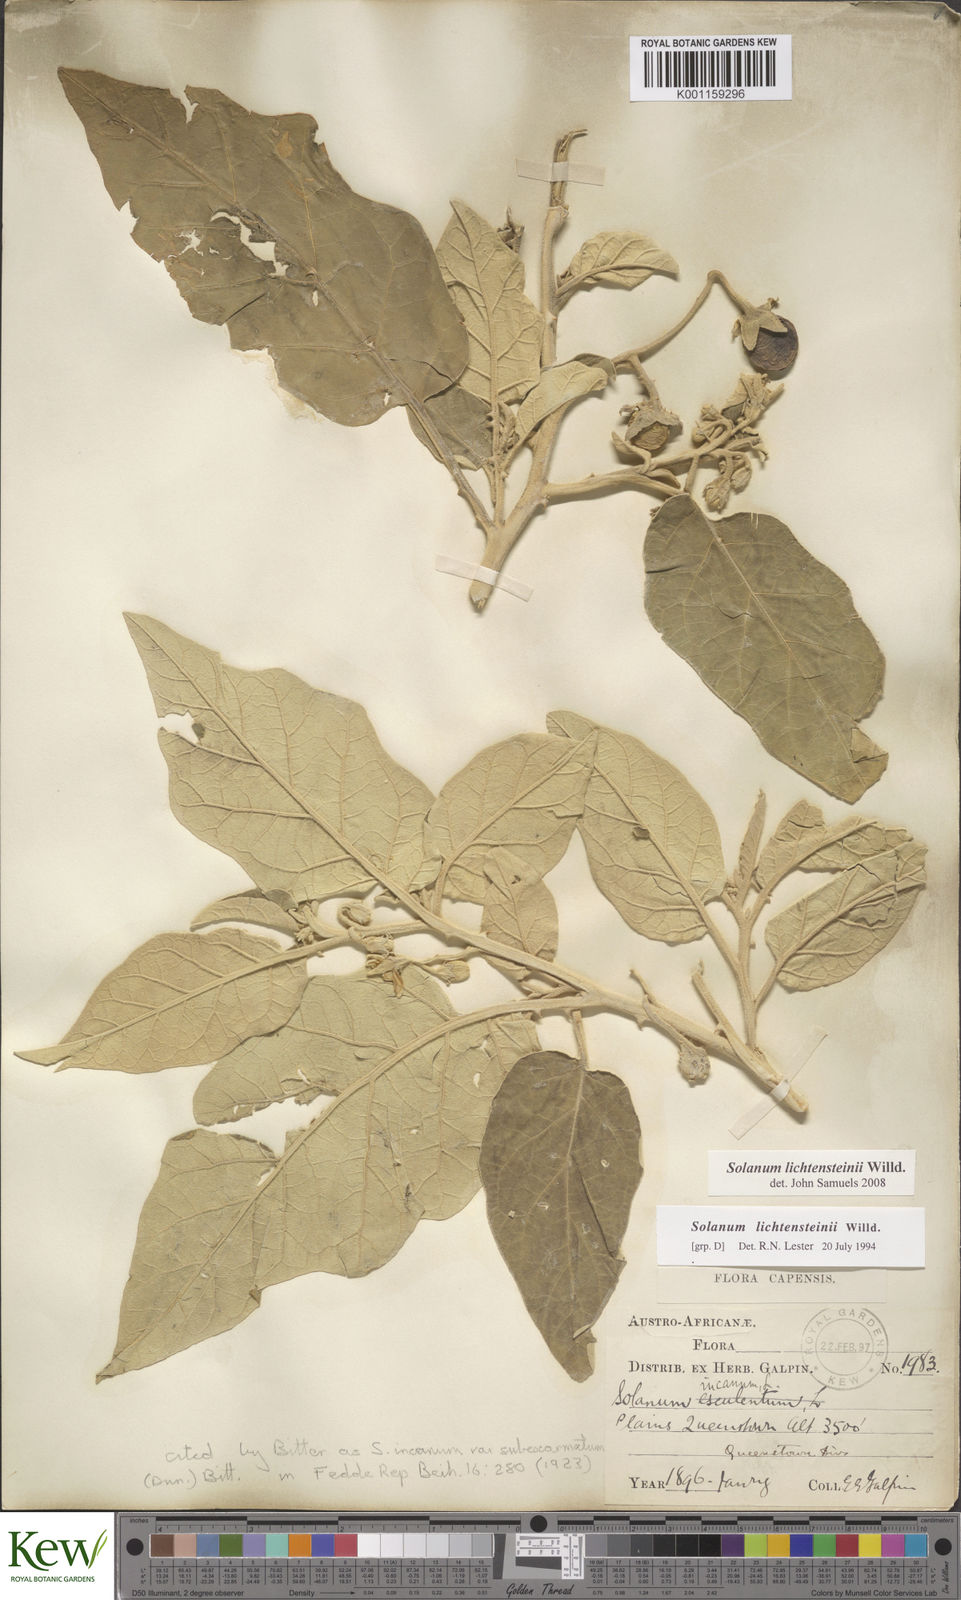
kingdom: Plantae
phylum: Tracheophyta
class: Magnoliopsida
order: Solanales
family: Solanaceae
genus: Solanum
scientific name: Solanum lichtensteinii
